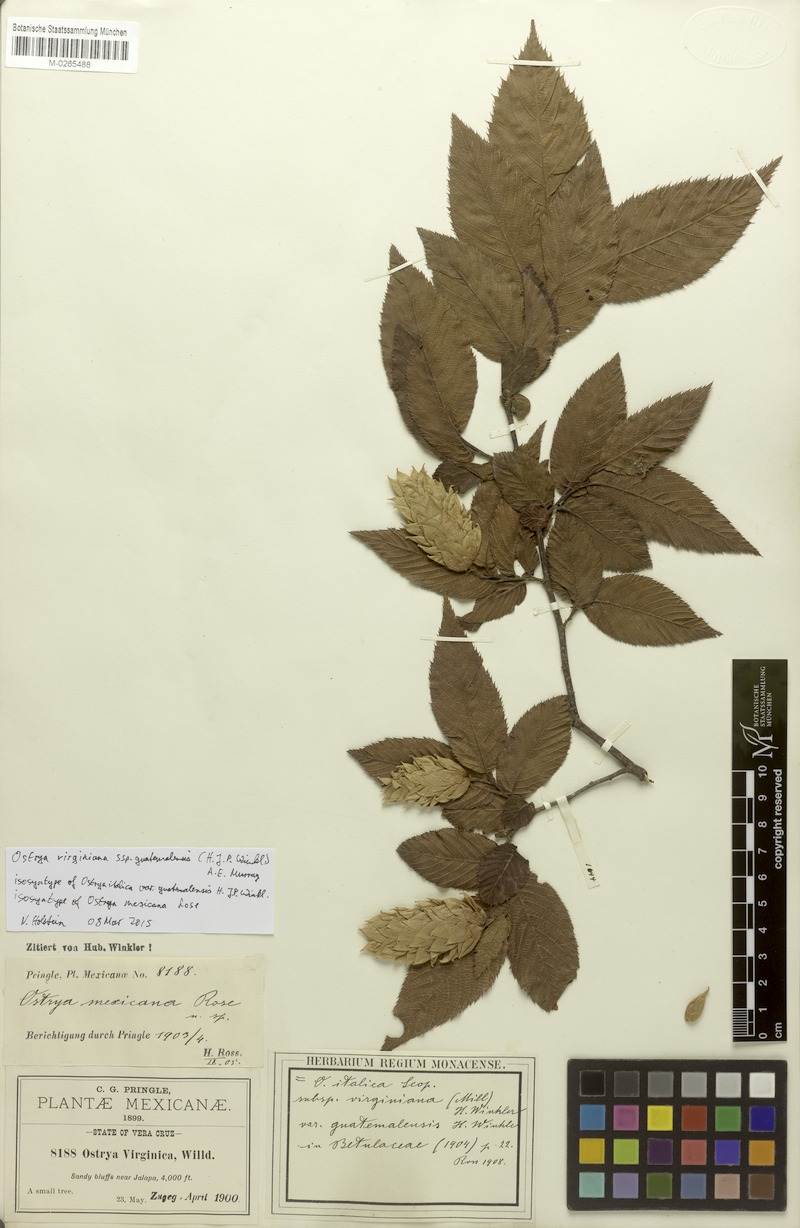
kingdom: Plantae
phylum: Tracheophyta
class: Magnoliopsida
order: Fagales
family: Betulaceae
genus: Ostrya
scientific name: Ostrya virginiana
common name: Ironwood
